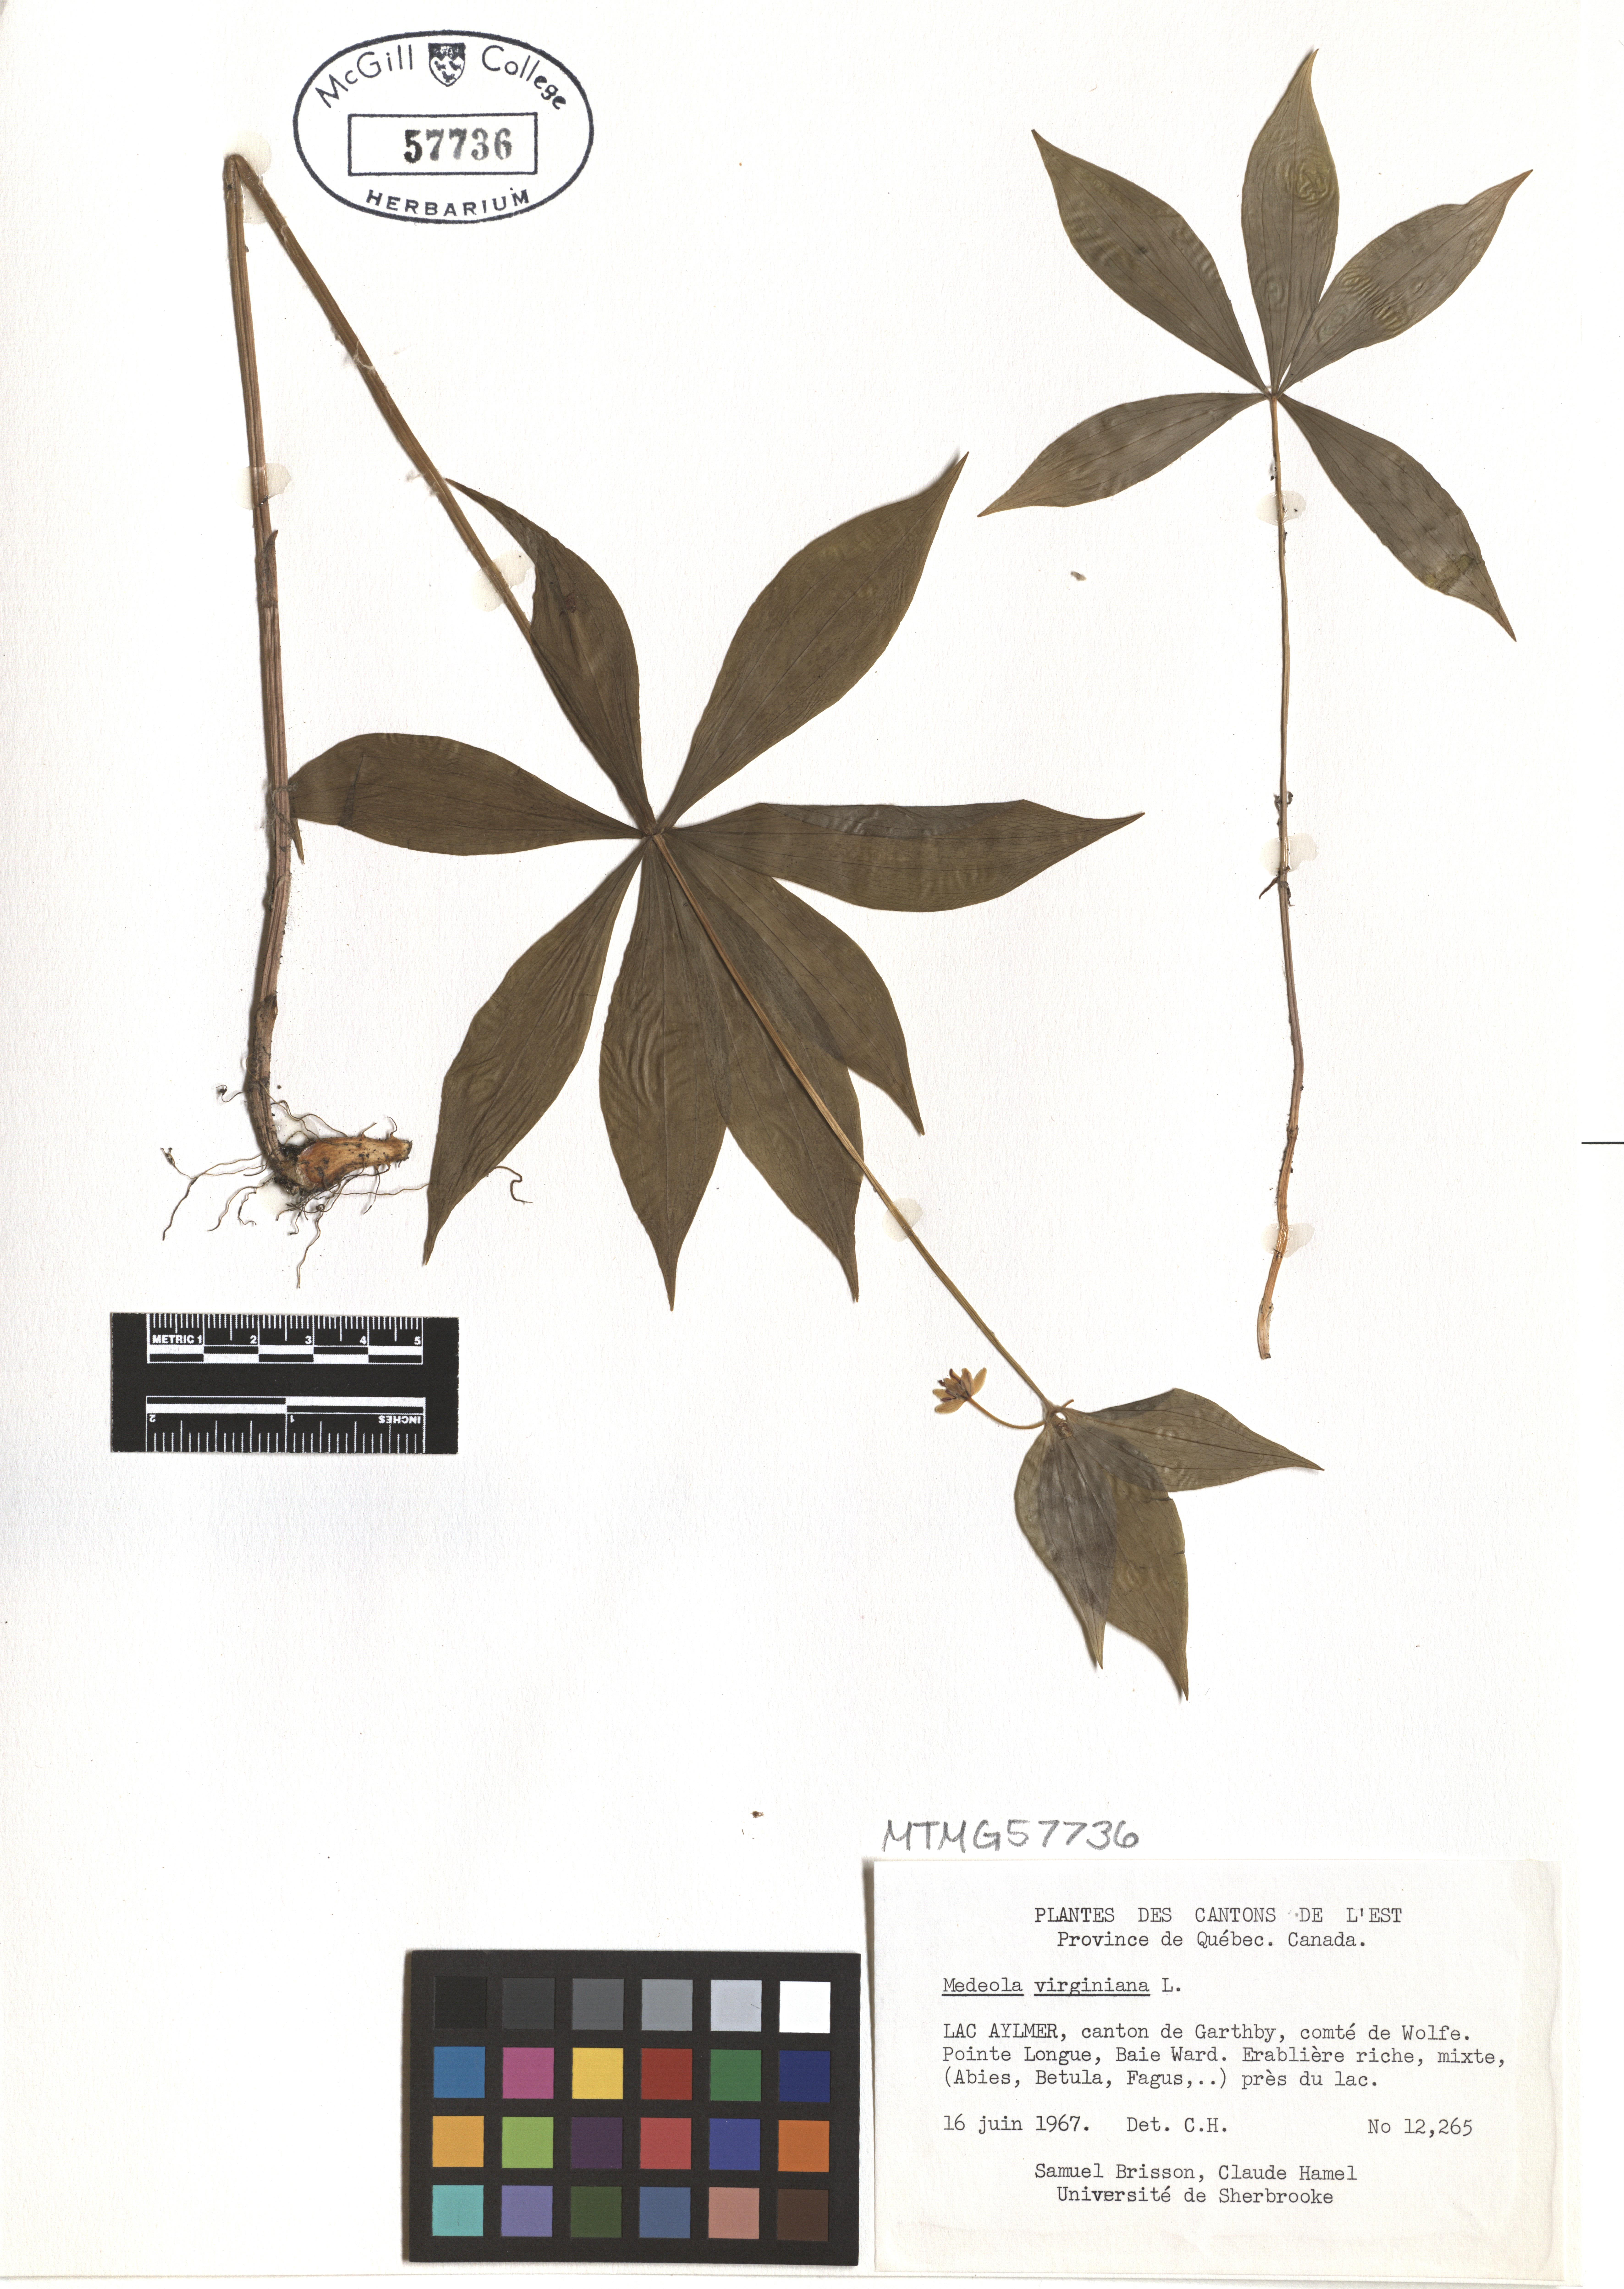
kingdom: Plantae
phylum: Tracheophyta
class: Liliopsida
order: Liliales
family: Liliaceae
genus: Medeola
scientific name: Medeola virginiana
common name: Indian cucumber-root
